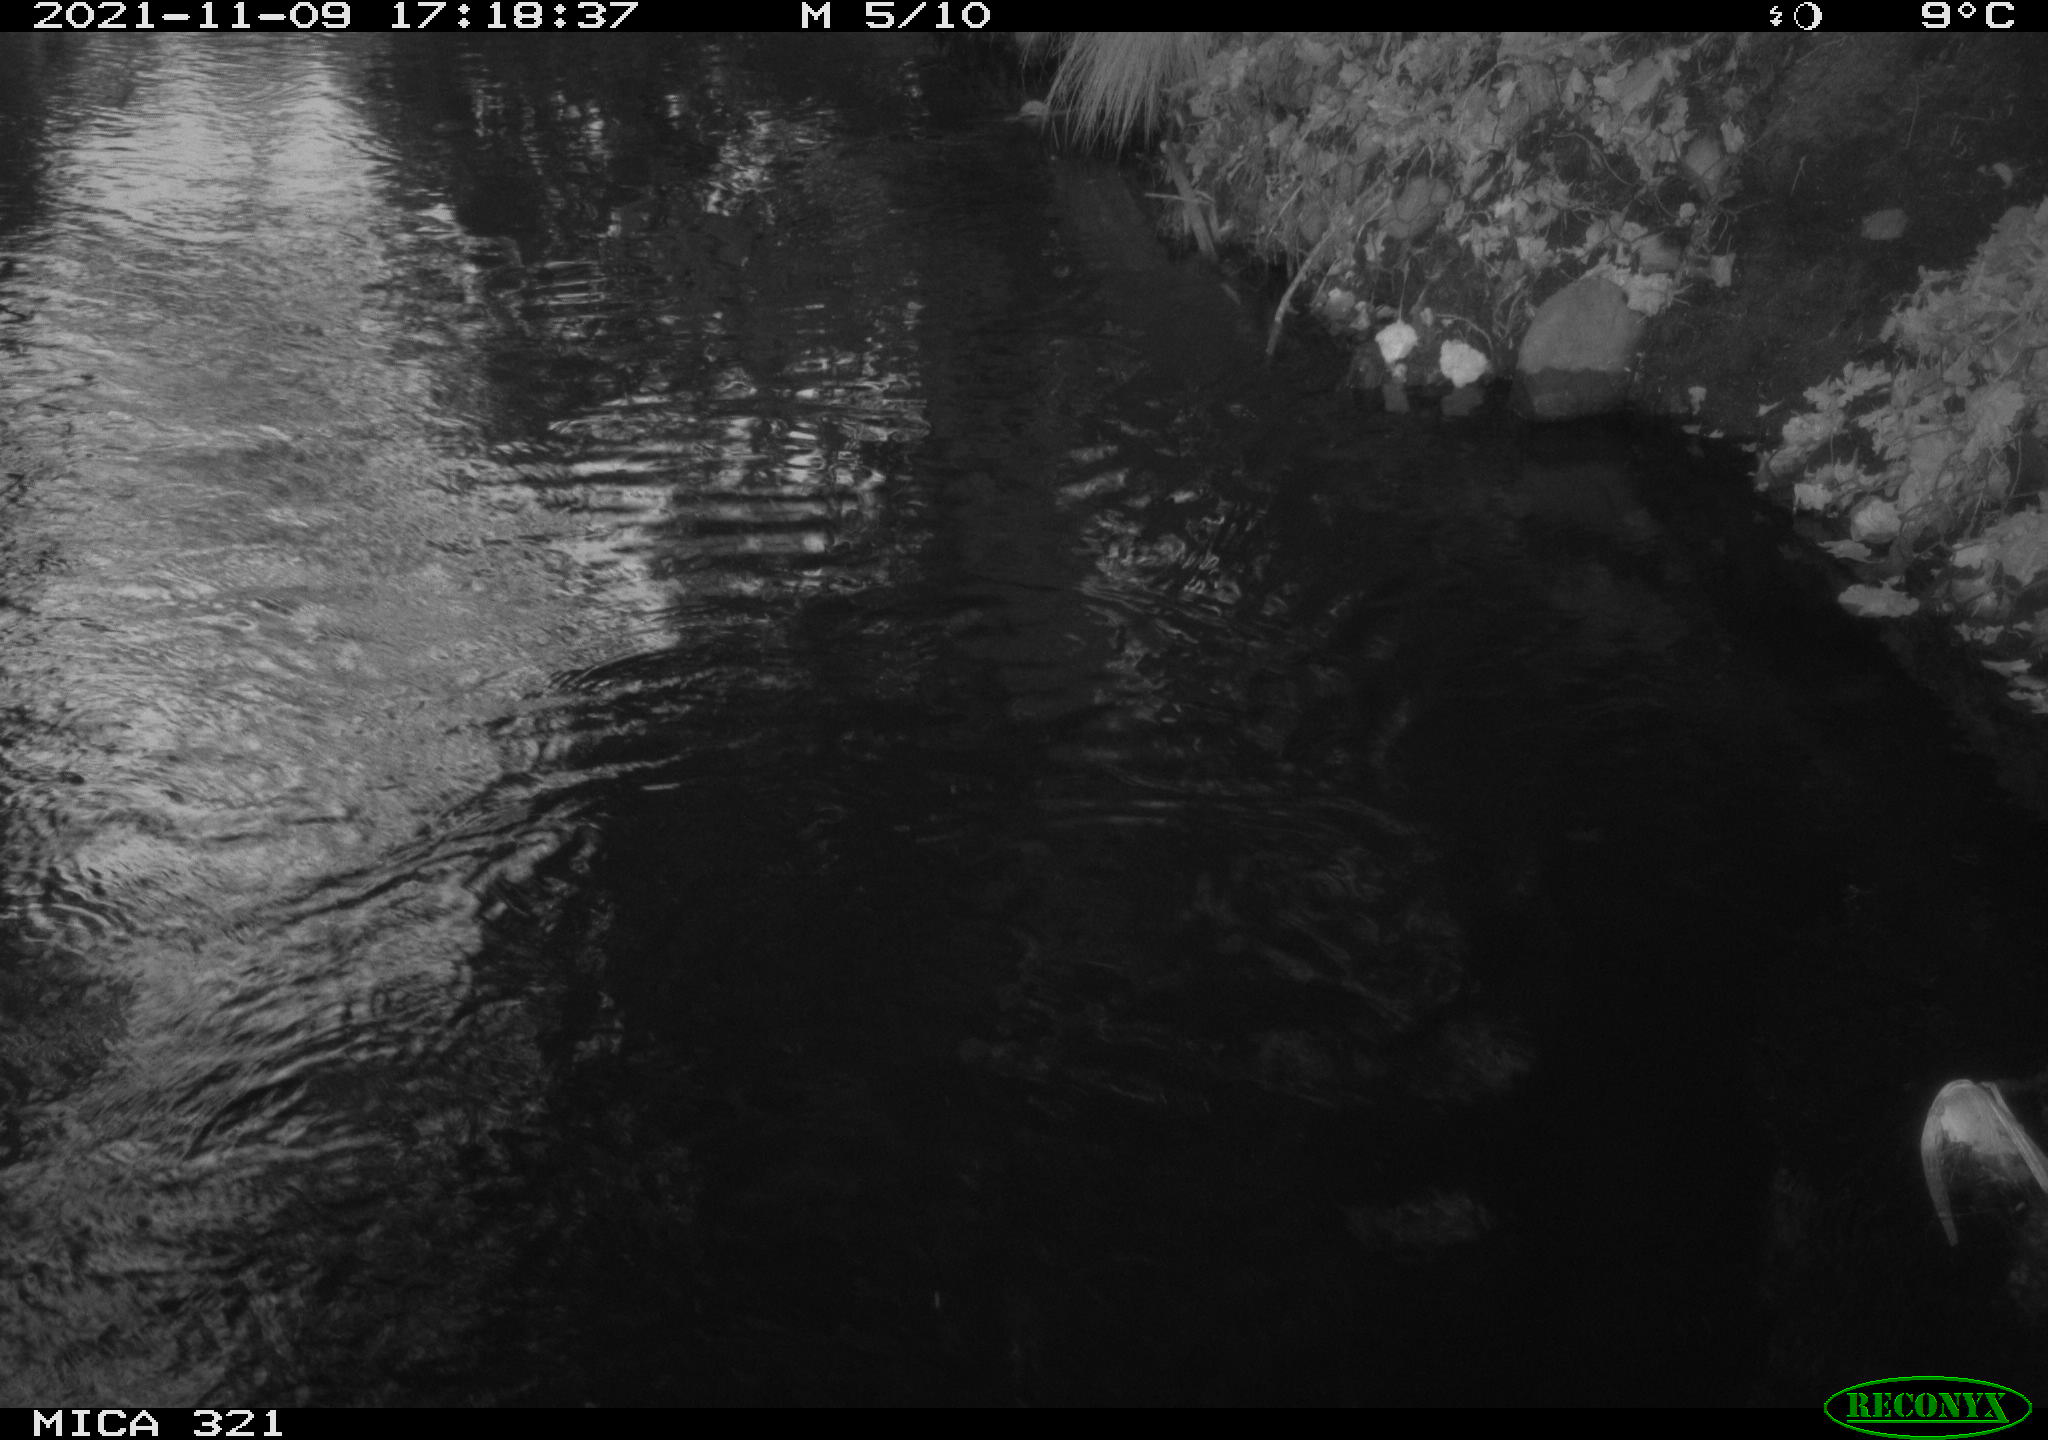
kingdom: Animalia
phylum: Chordata
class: Aves
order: Anseriformes
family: Anatidae
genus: Anas
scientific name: Anas platyrhynchos
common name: Mallard
